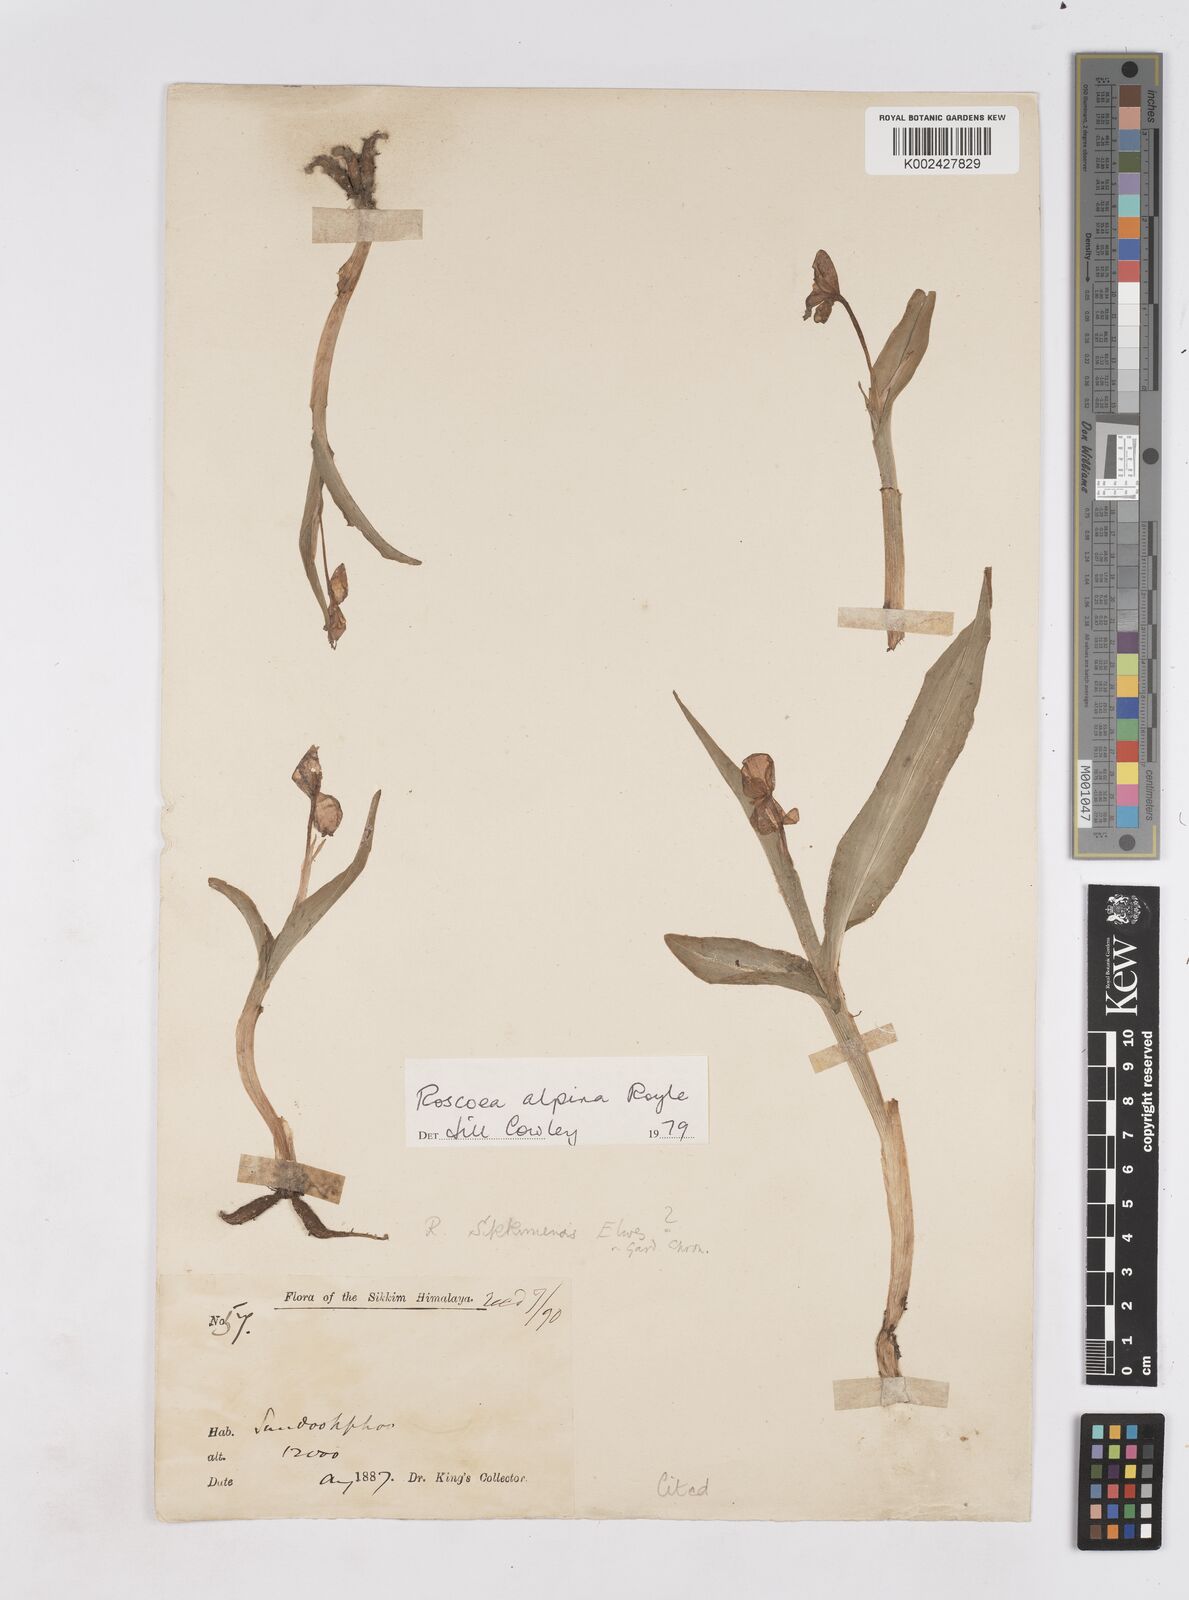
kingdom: Plantae
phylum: Tracheophyta
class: Liliopsida
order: Zingiberales
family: Zingiberaceae
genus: Roscoea
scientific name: Roscoea alpina
